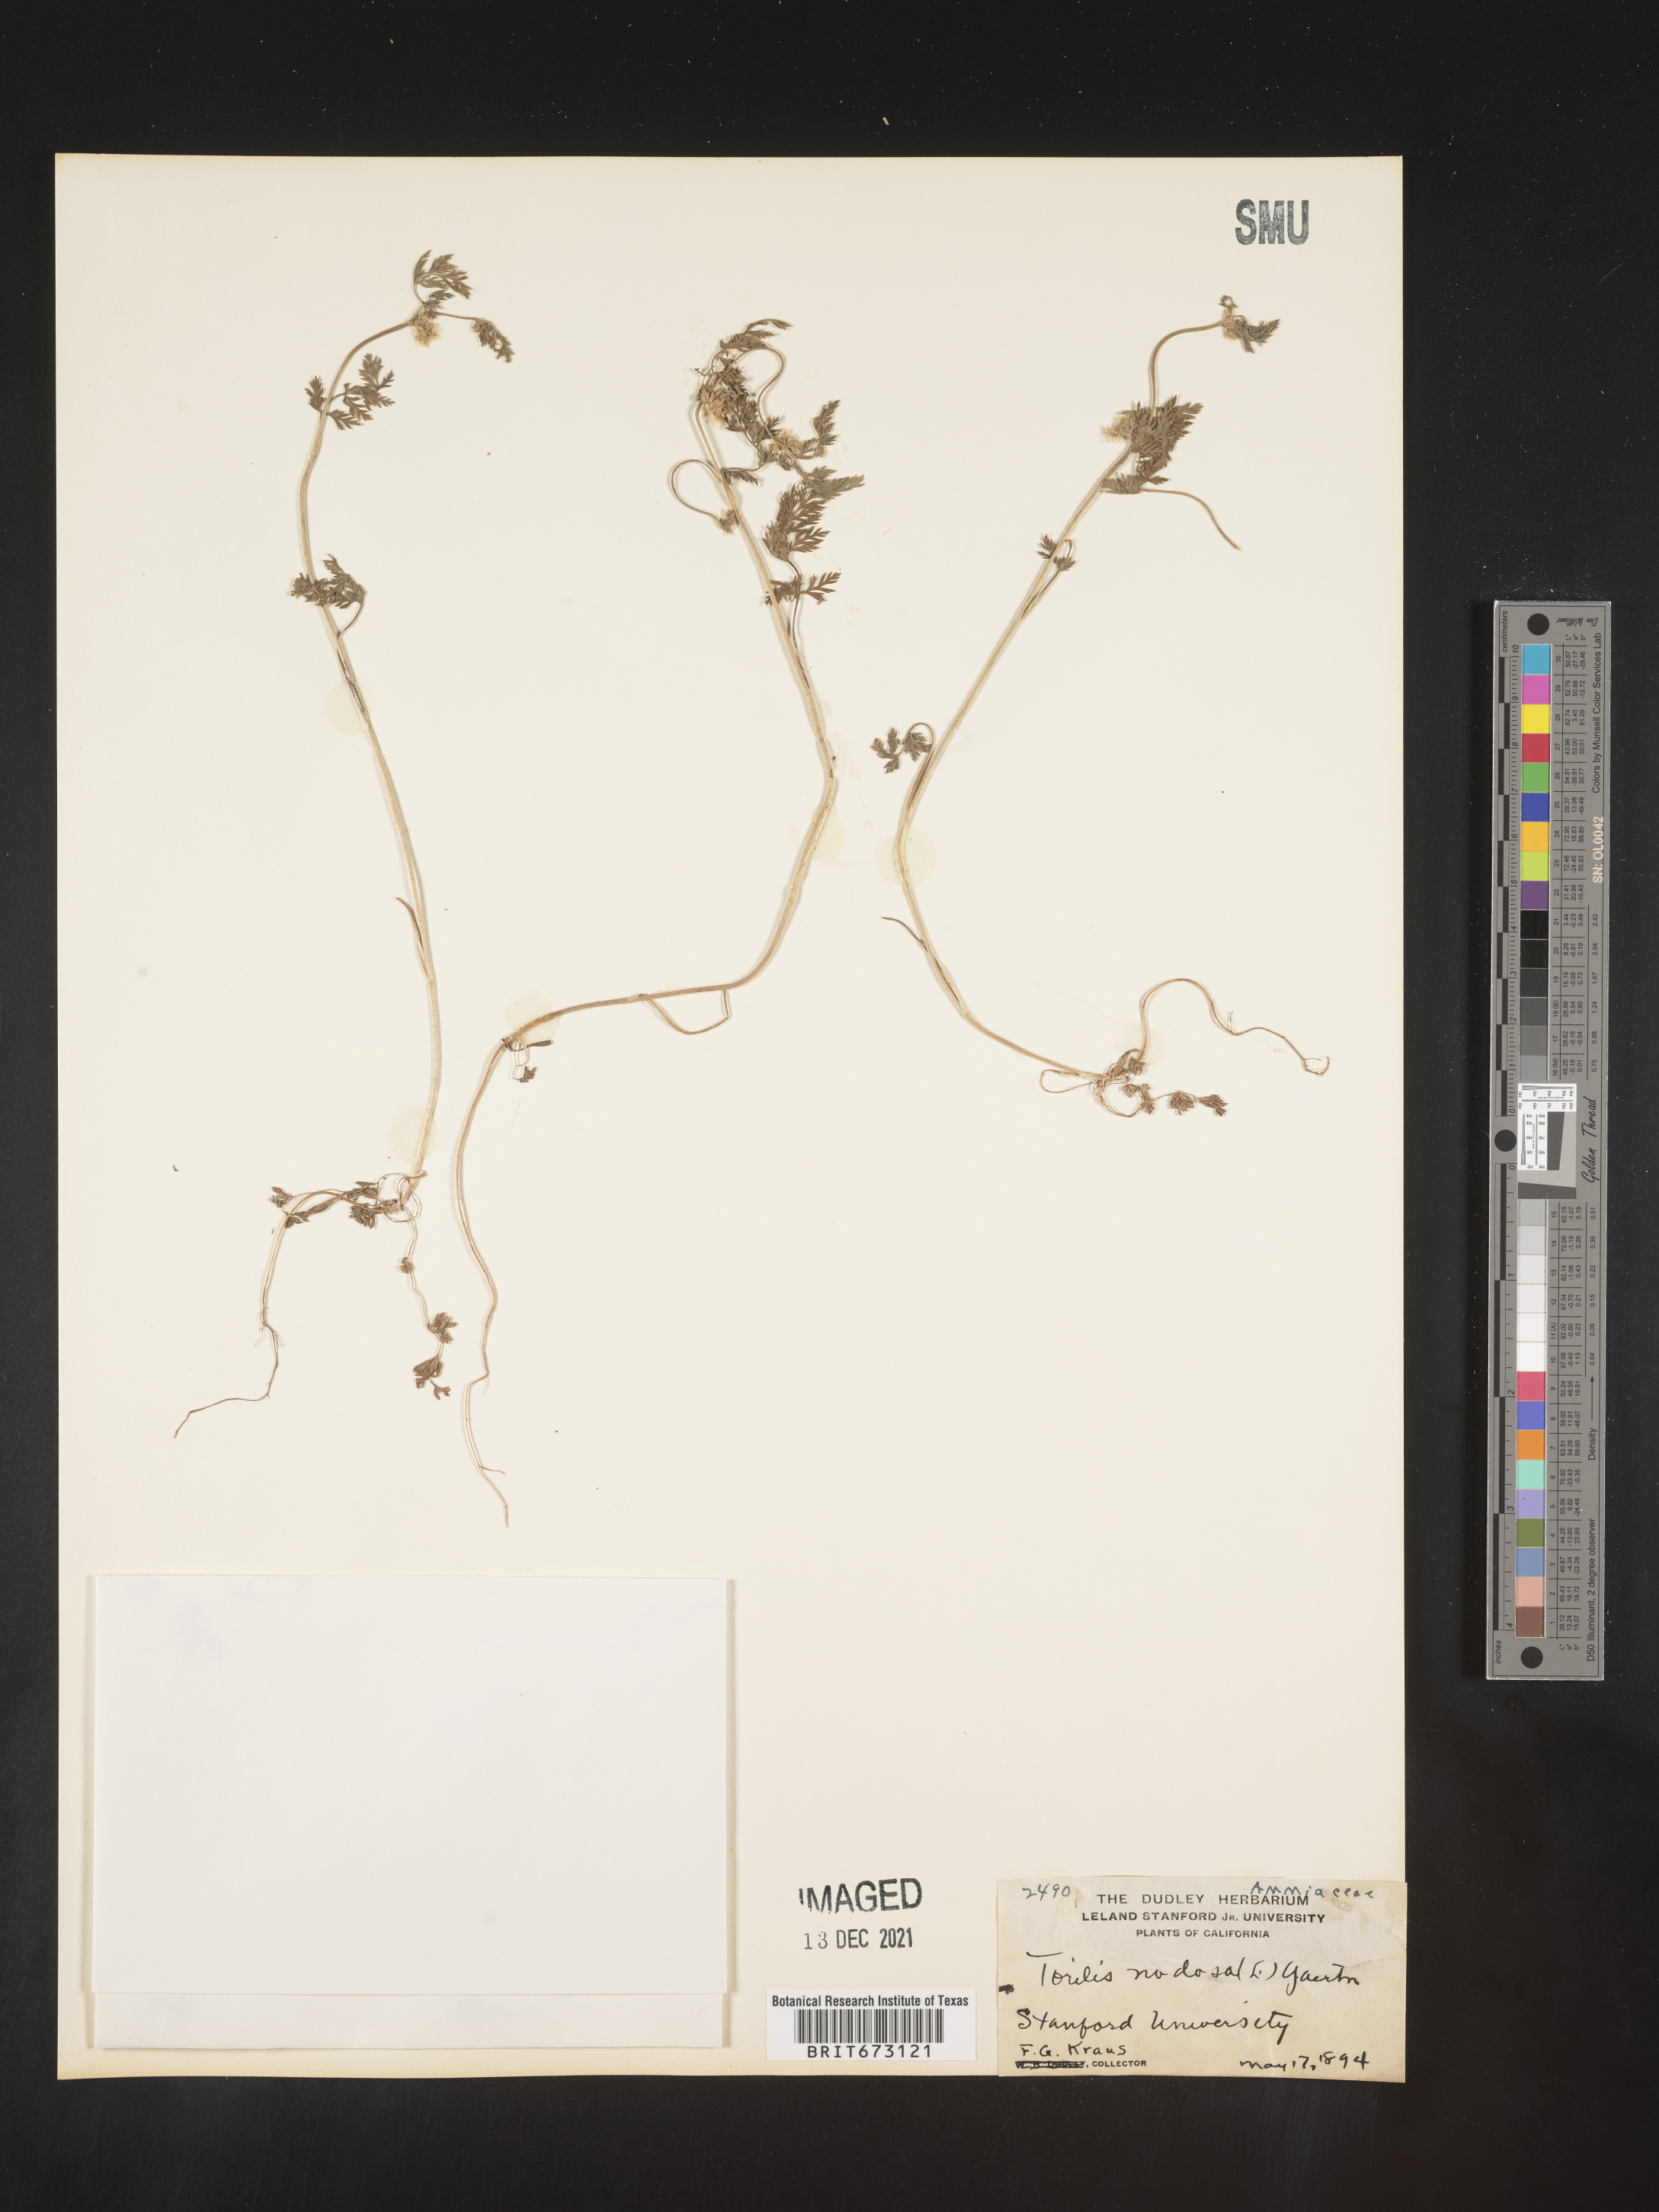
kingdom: Plantae
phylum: Tracheophyta
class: Magnoliopsida
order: Apiales
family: Apiaceae
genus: Torilis
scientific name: Torilis nodosa
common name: Knotted hedge-parsley
